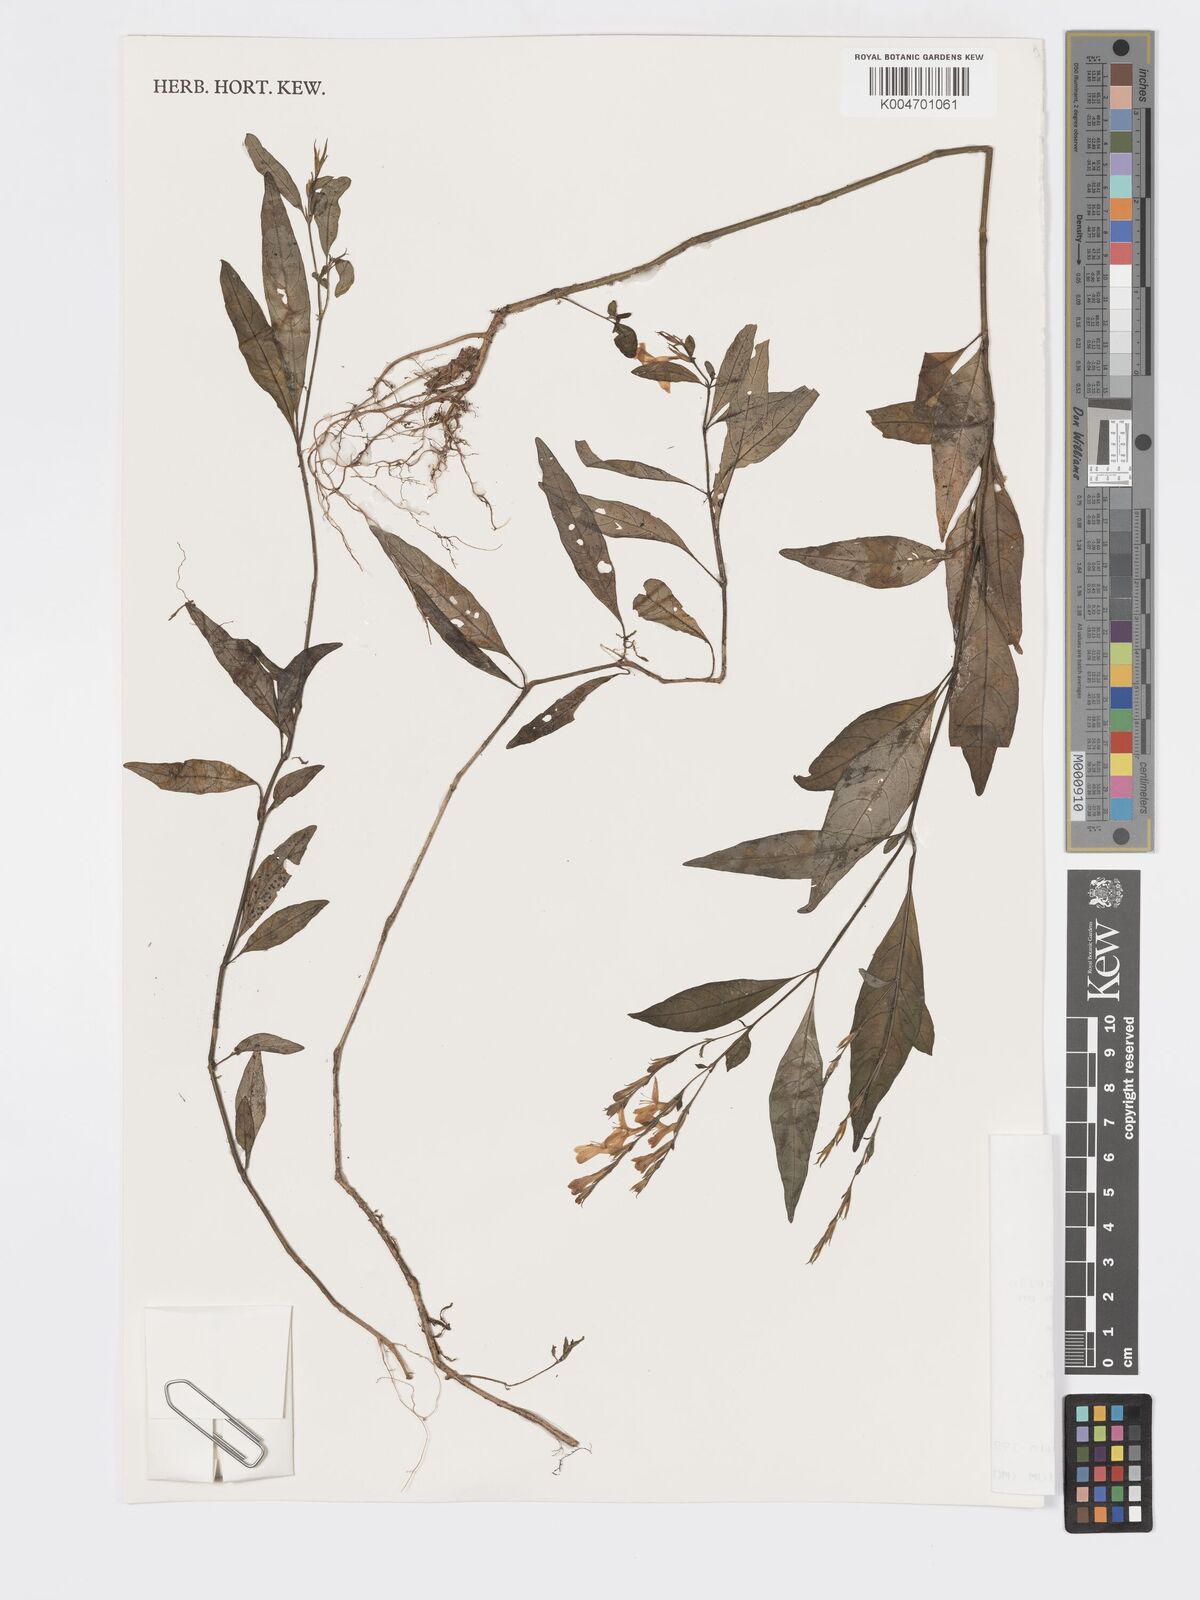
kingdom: Plantae
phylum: Tracheophyta
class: Magnoliopsida
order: Lamiales
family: Acanthaceae
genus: Hypoestes
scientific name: Hypoestes
